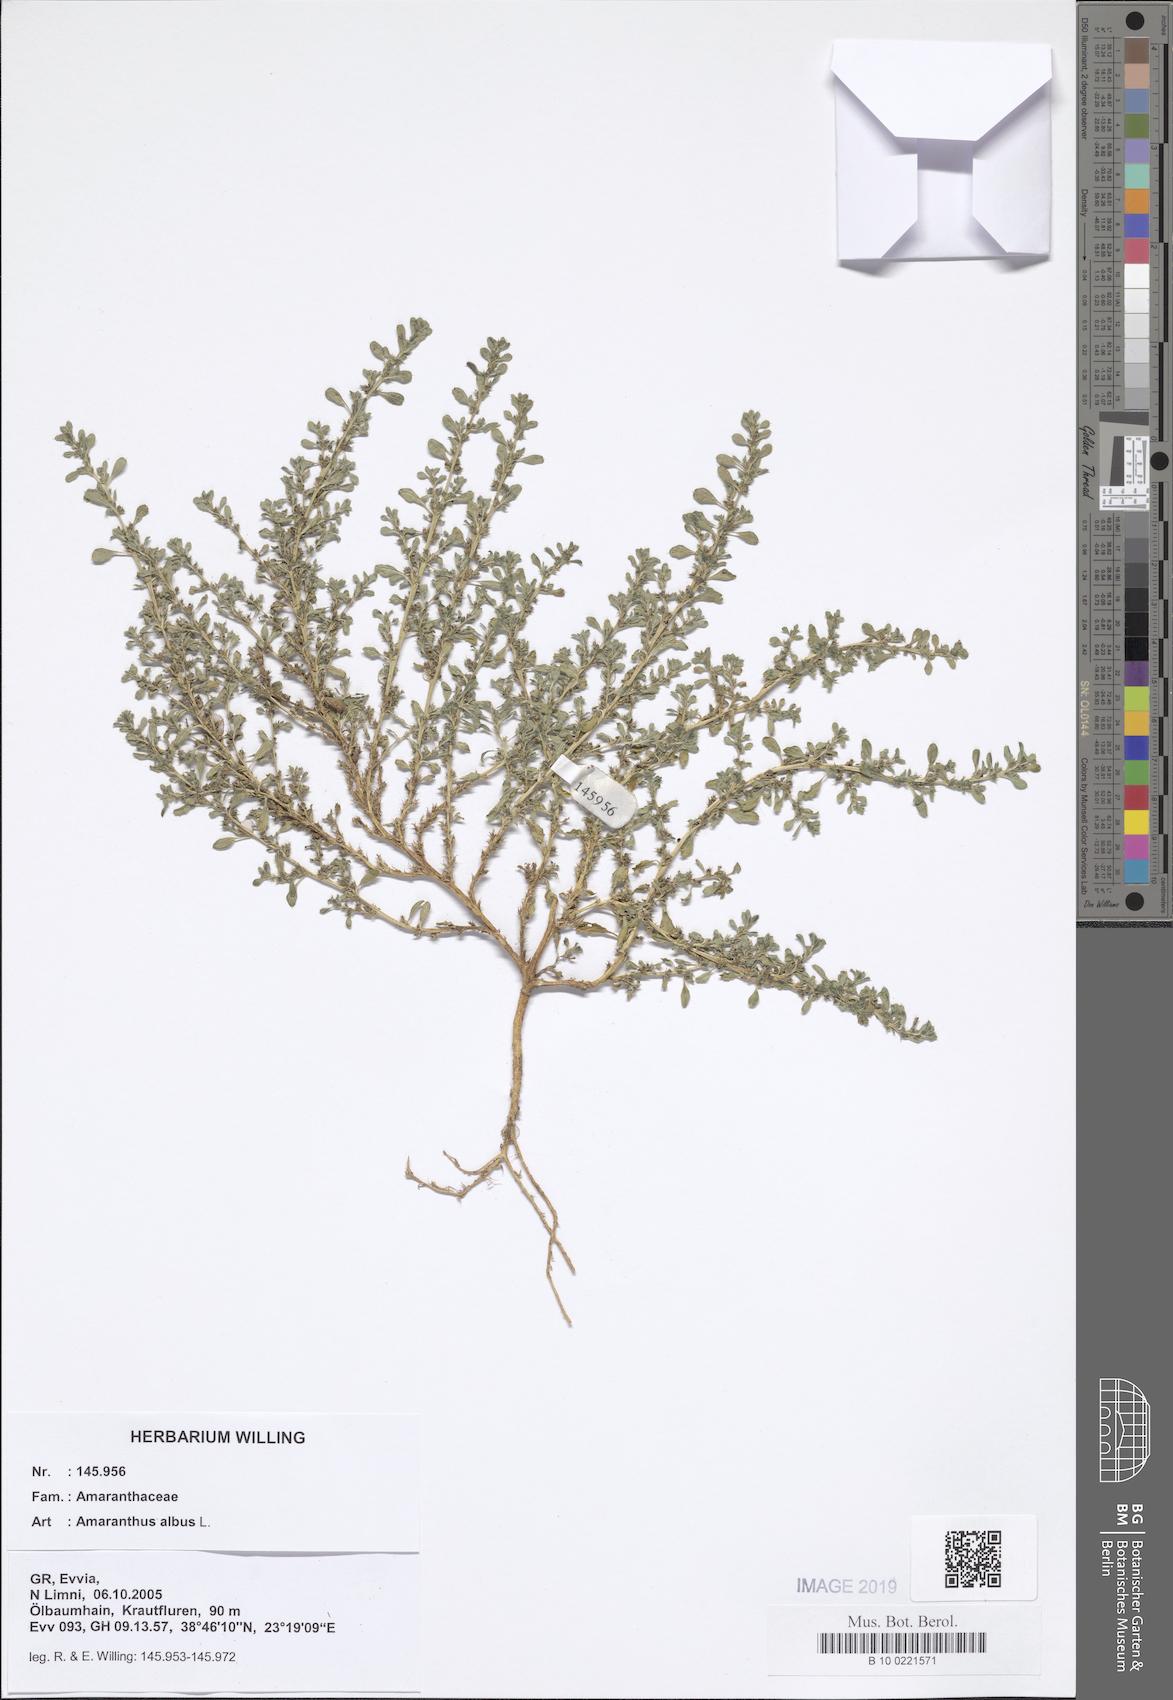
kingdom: Plantae
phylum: Tracheophyta
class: Magnoliopsida
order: Caryophyllales
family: Amaranthaceae
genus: Amaranthus
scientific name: Amaranthus albus
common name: White pigweed
